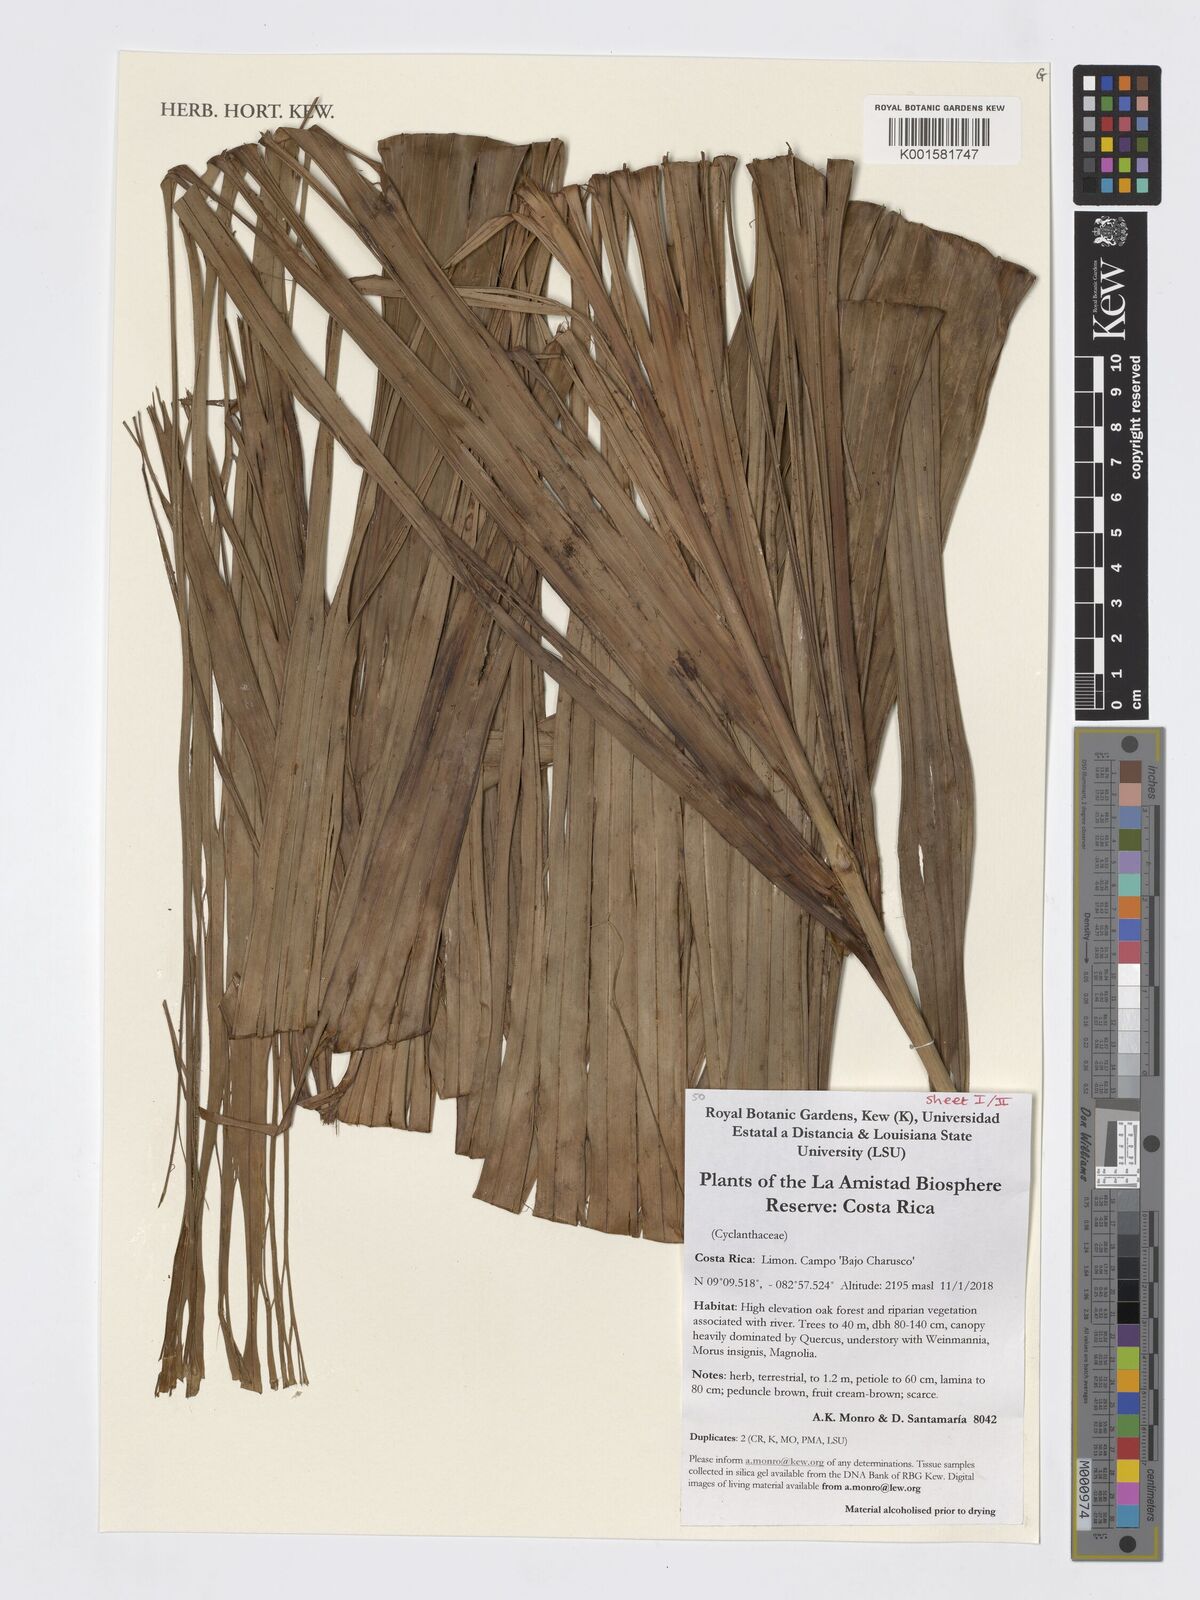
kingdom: Plantae
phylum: Tracheophyta
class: Liliopsida
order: Pandanales
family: Cyclanthaceae
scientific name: Cyclanthaceae
